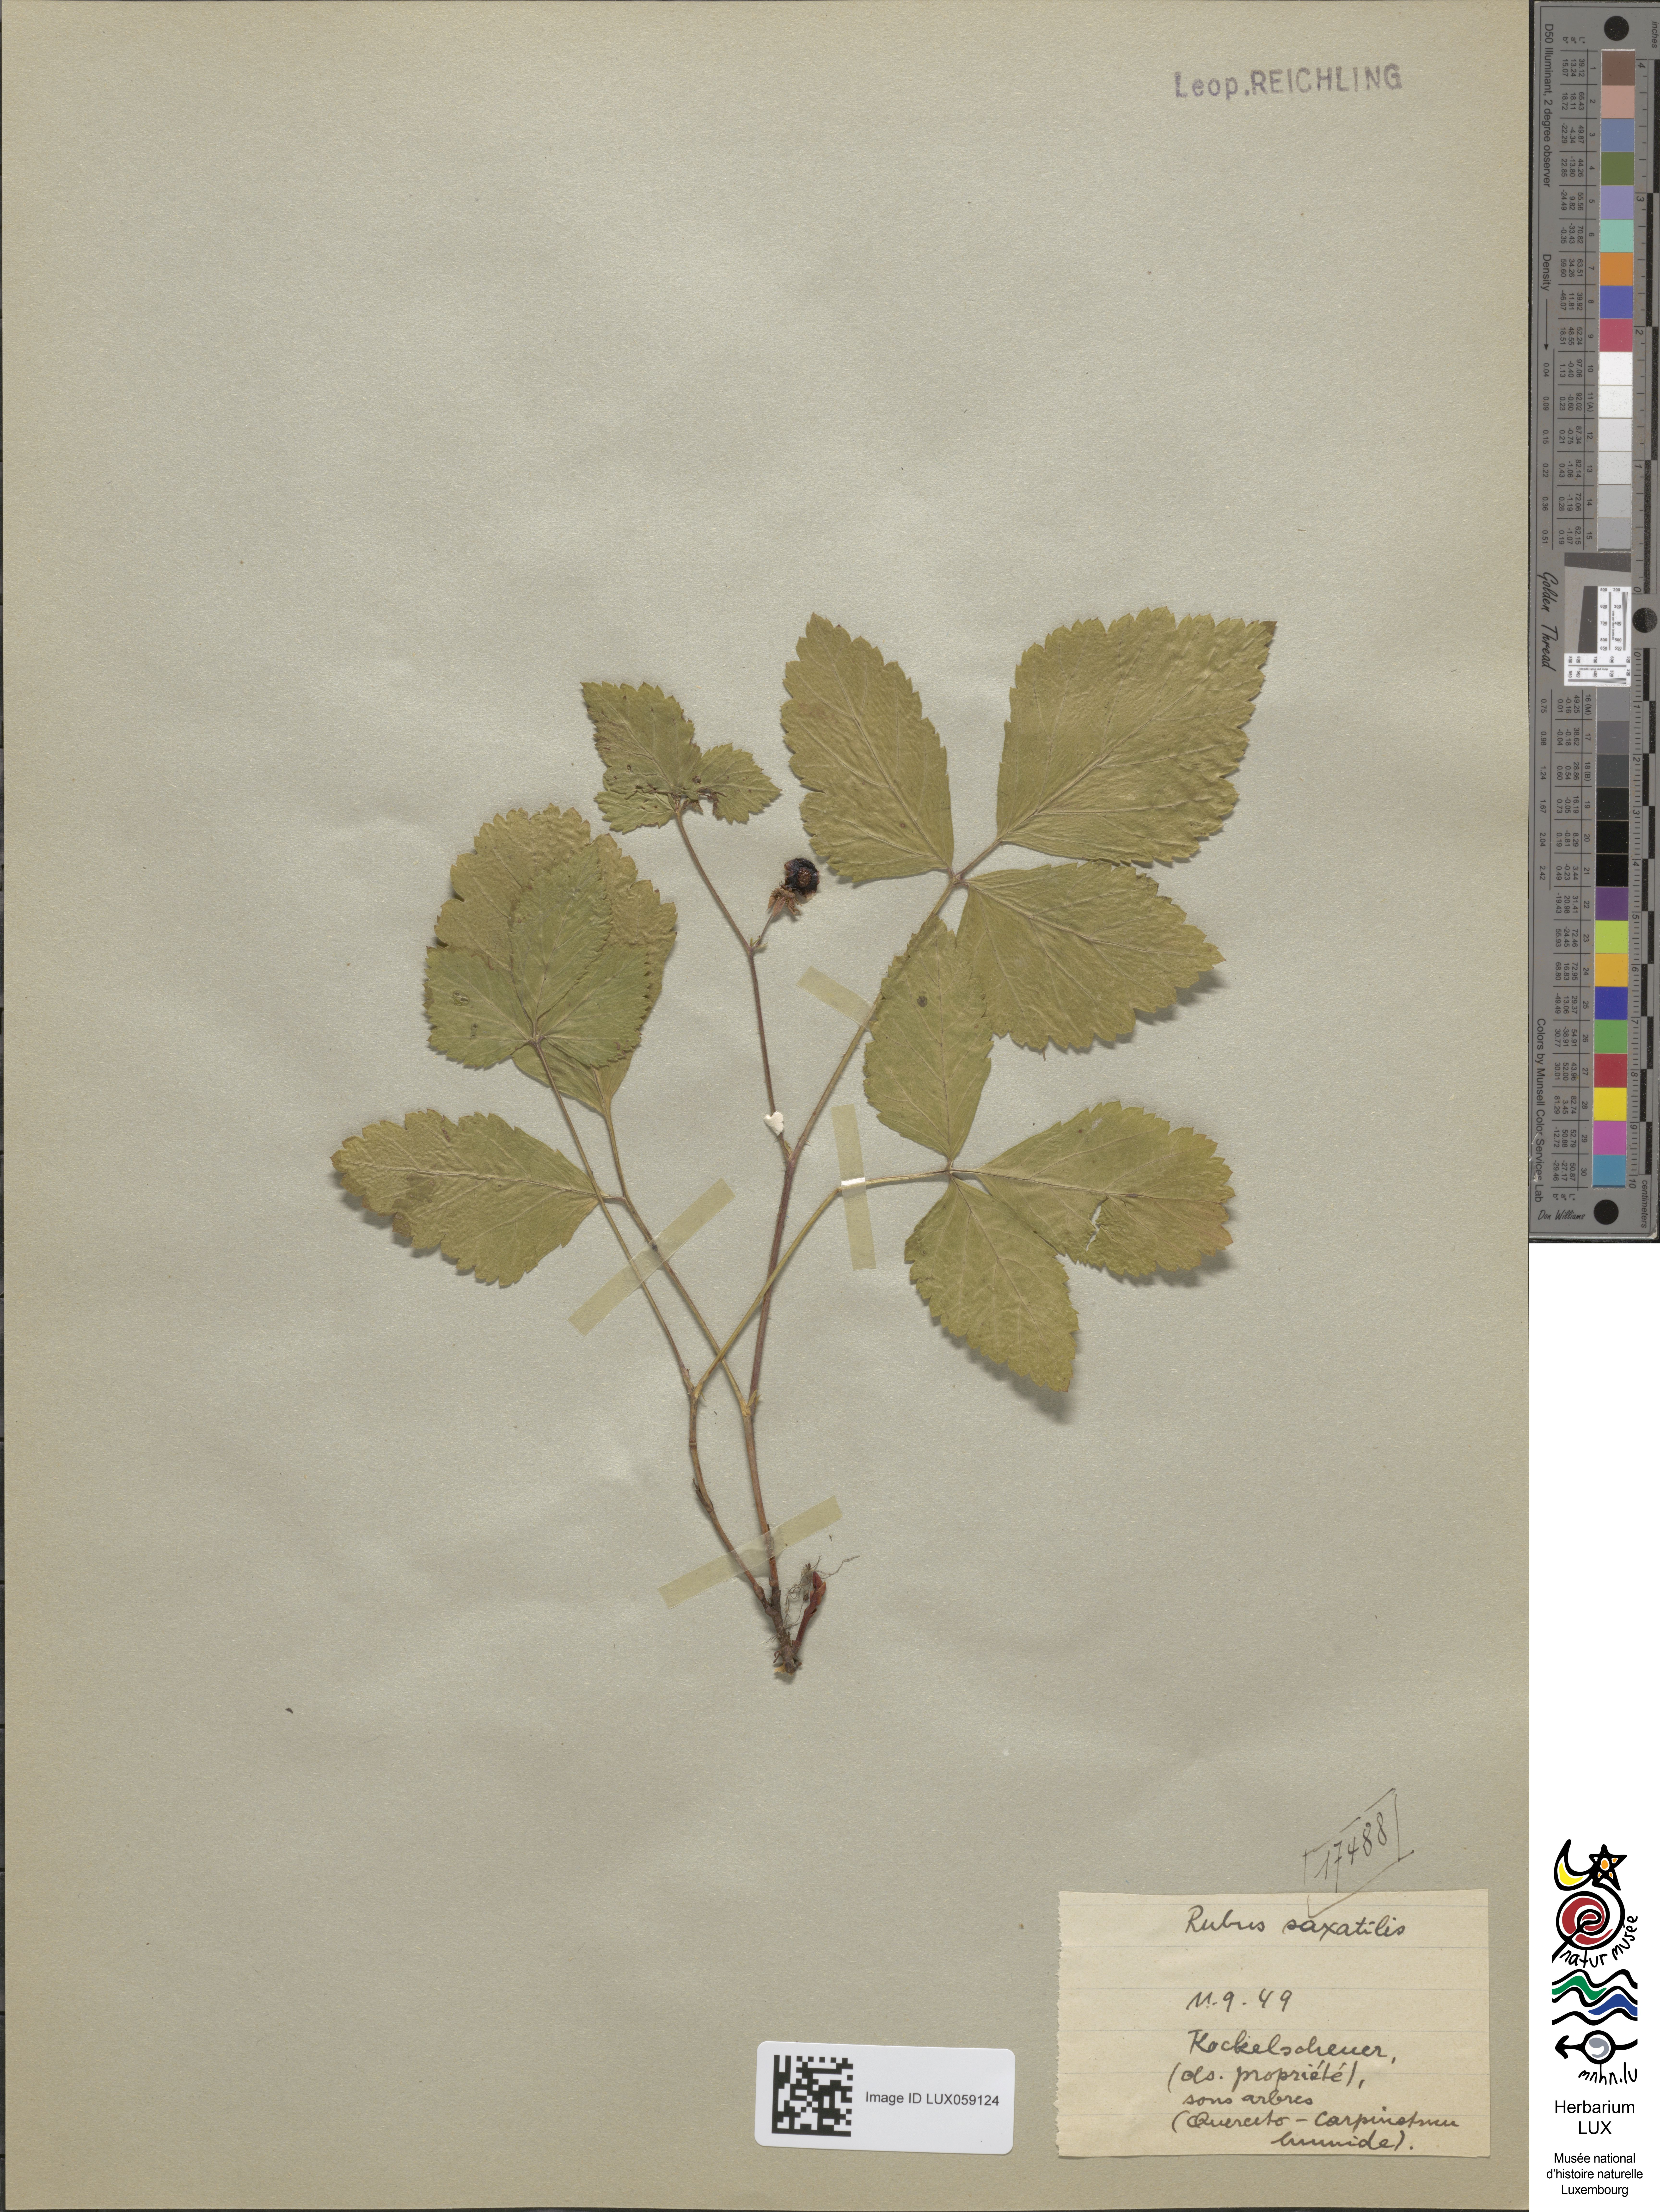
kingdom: Plantae
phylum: Tracheophyta
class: Magnoliopsida
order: Rosales
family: Rosaceae
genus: Rubus
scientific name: Rubus saxatilis
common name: Stone bramble
